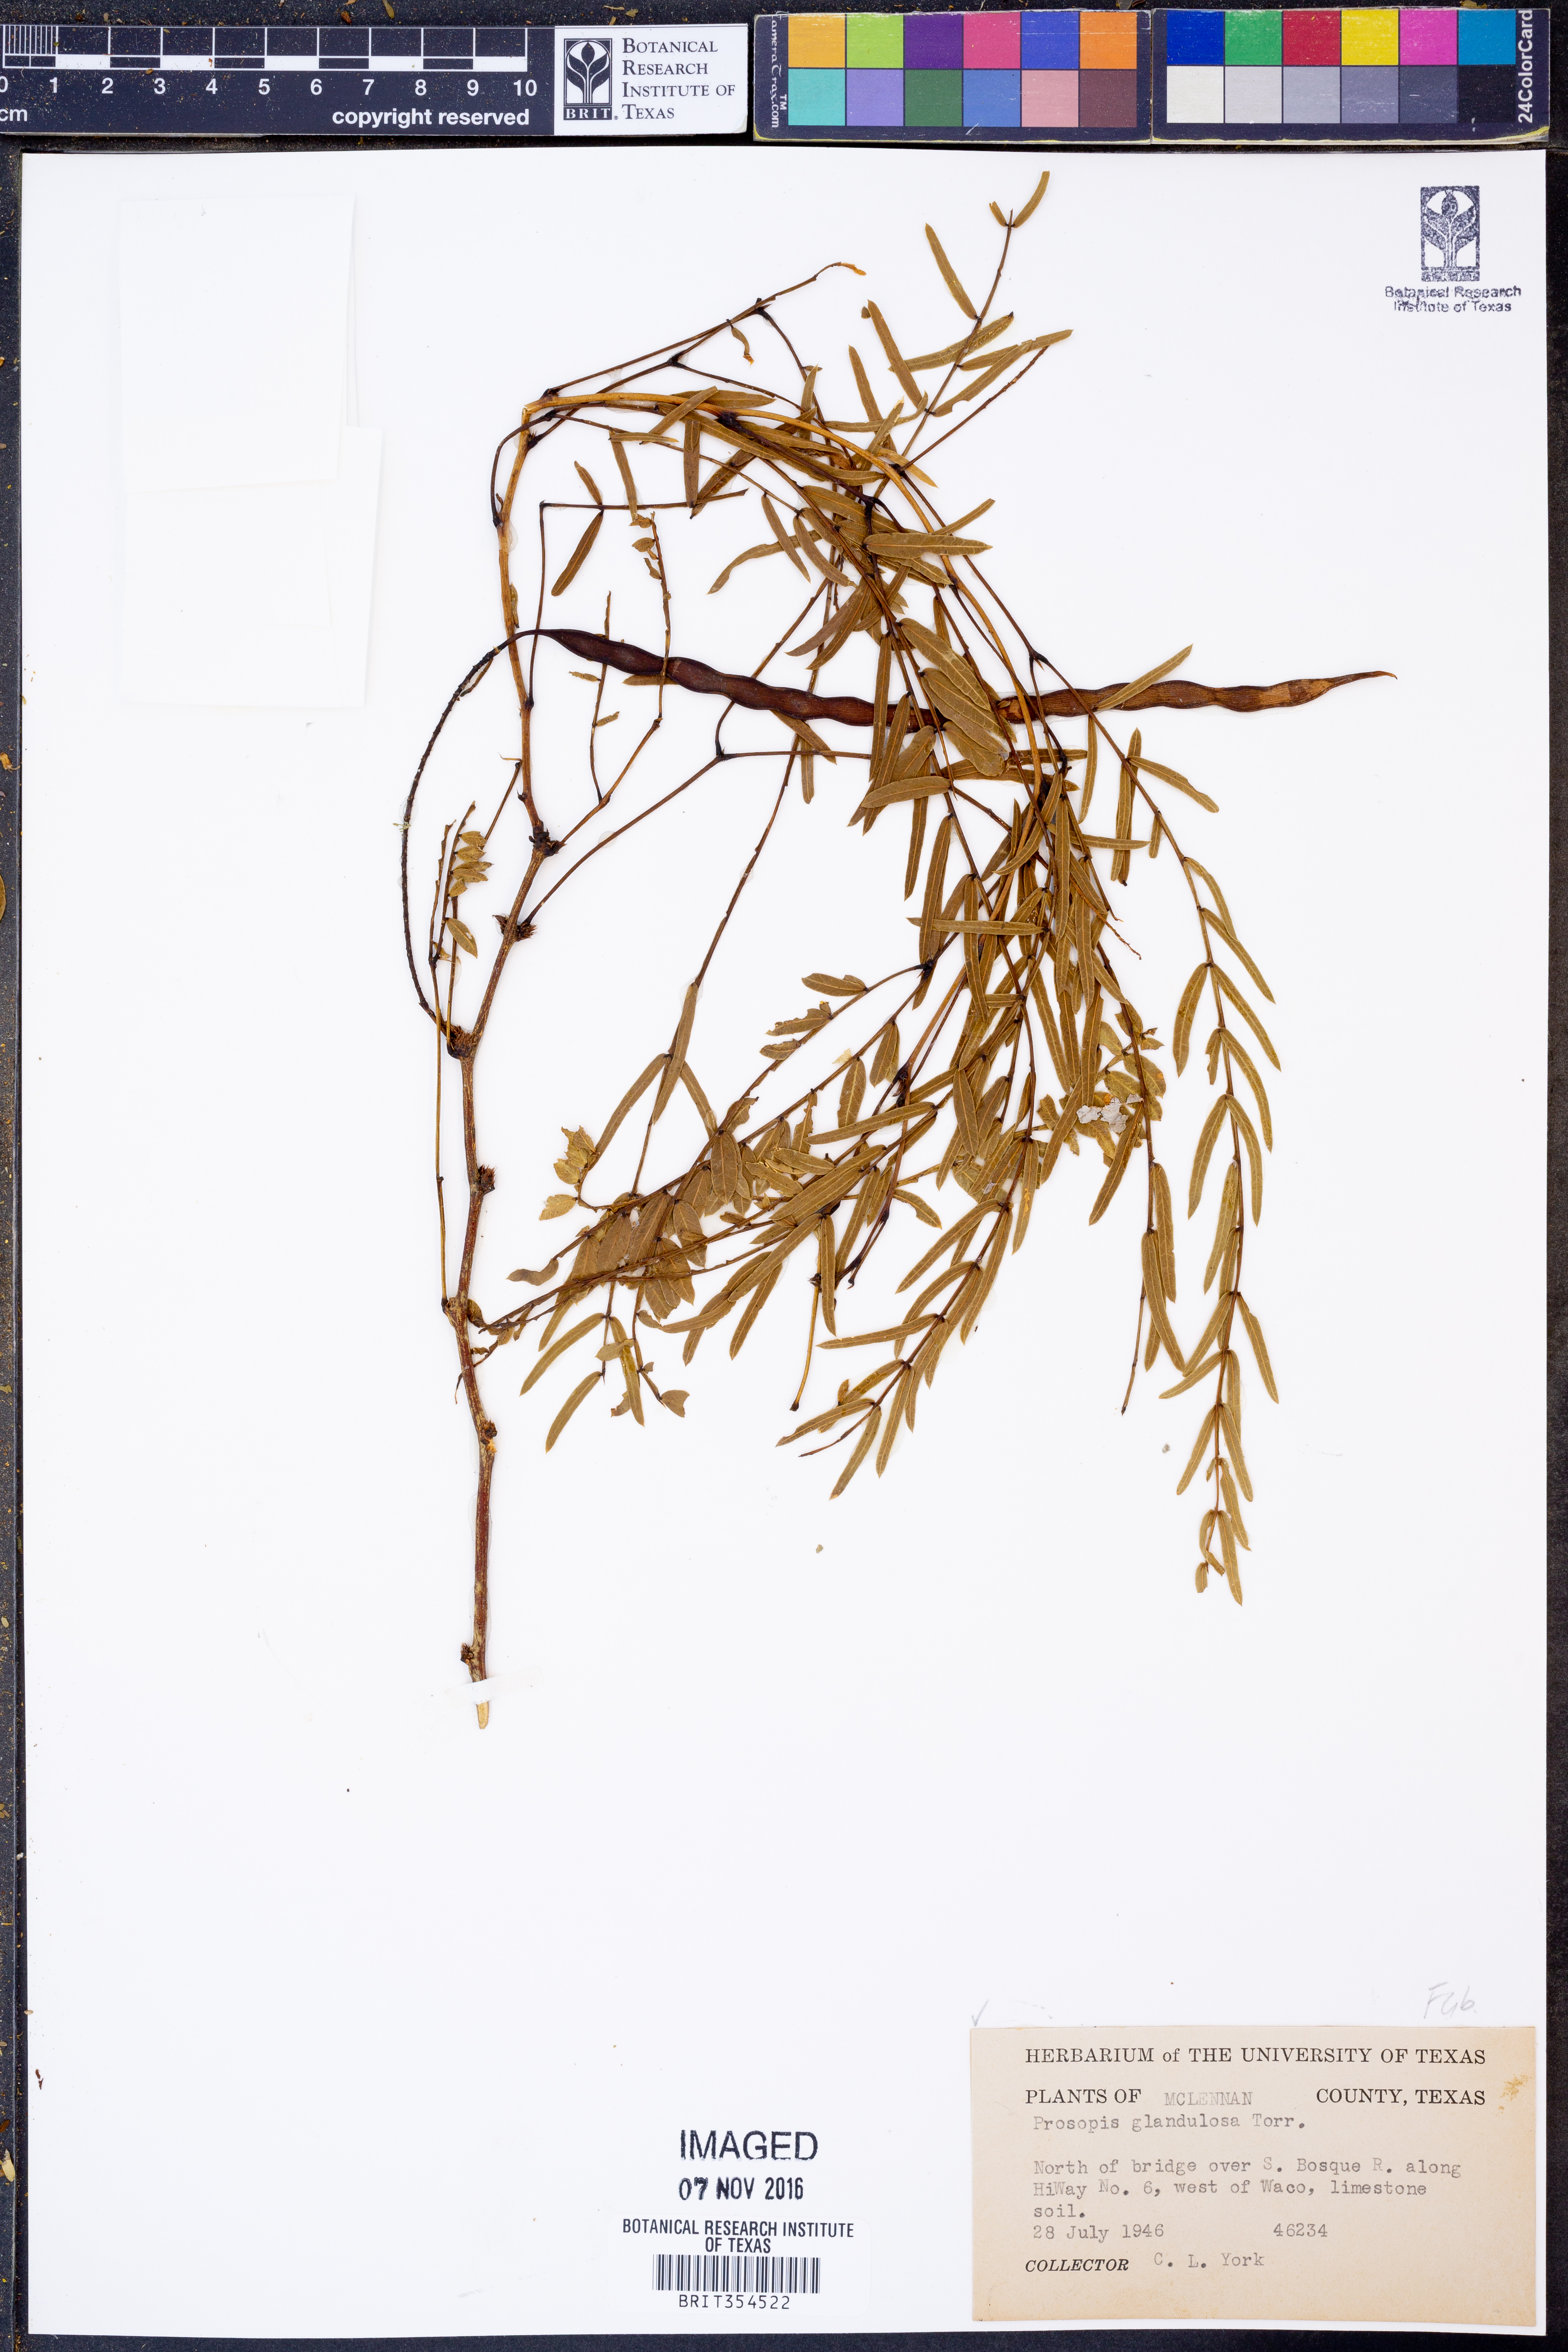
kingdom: Plantae
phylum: Tracheophyta
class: Magnoliopsida
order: Fabales
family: Fabaceae
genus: Prosopis
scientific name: Prosopis glandulosa
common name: Honey mesquite
